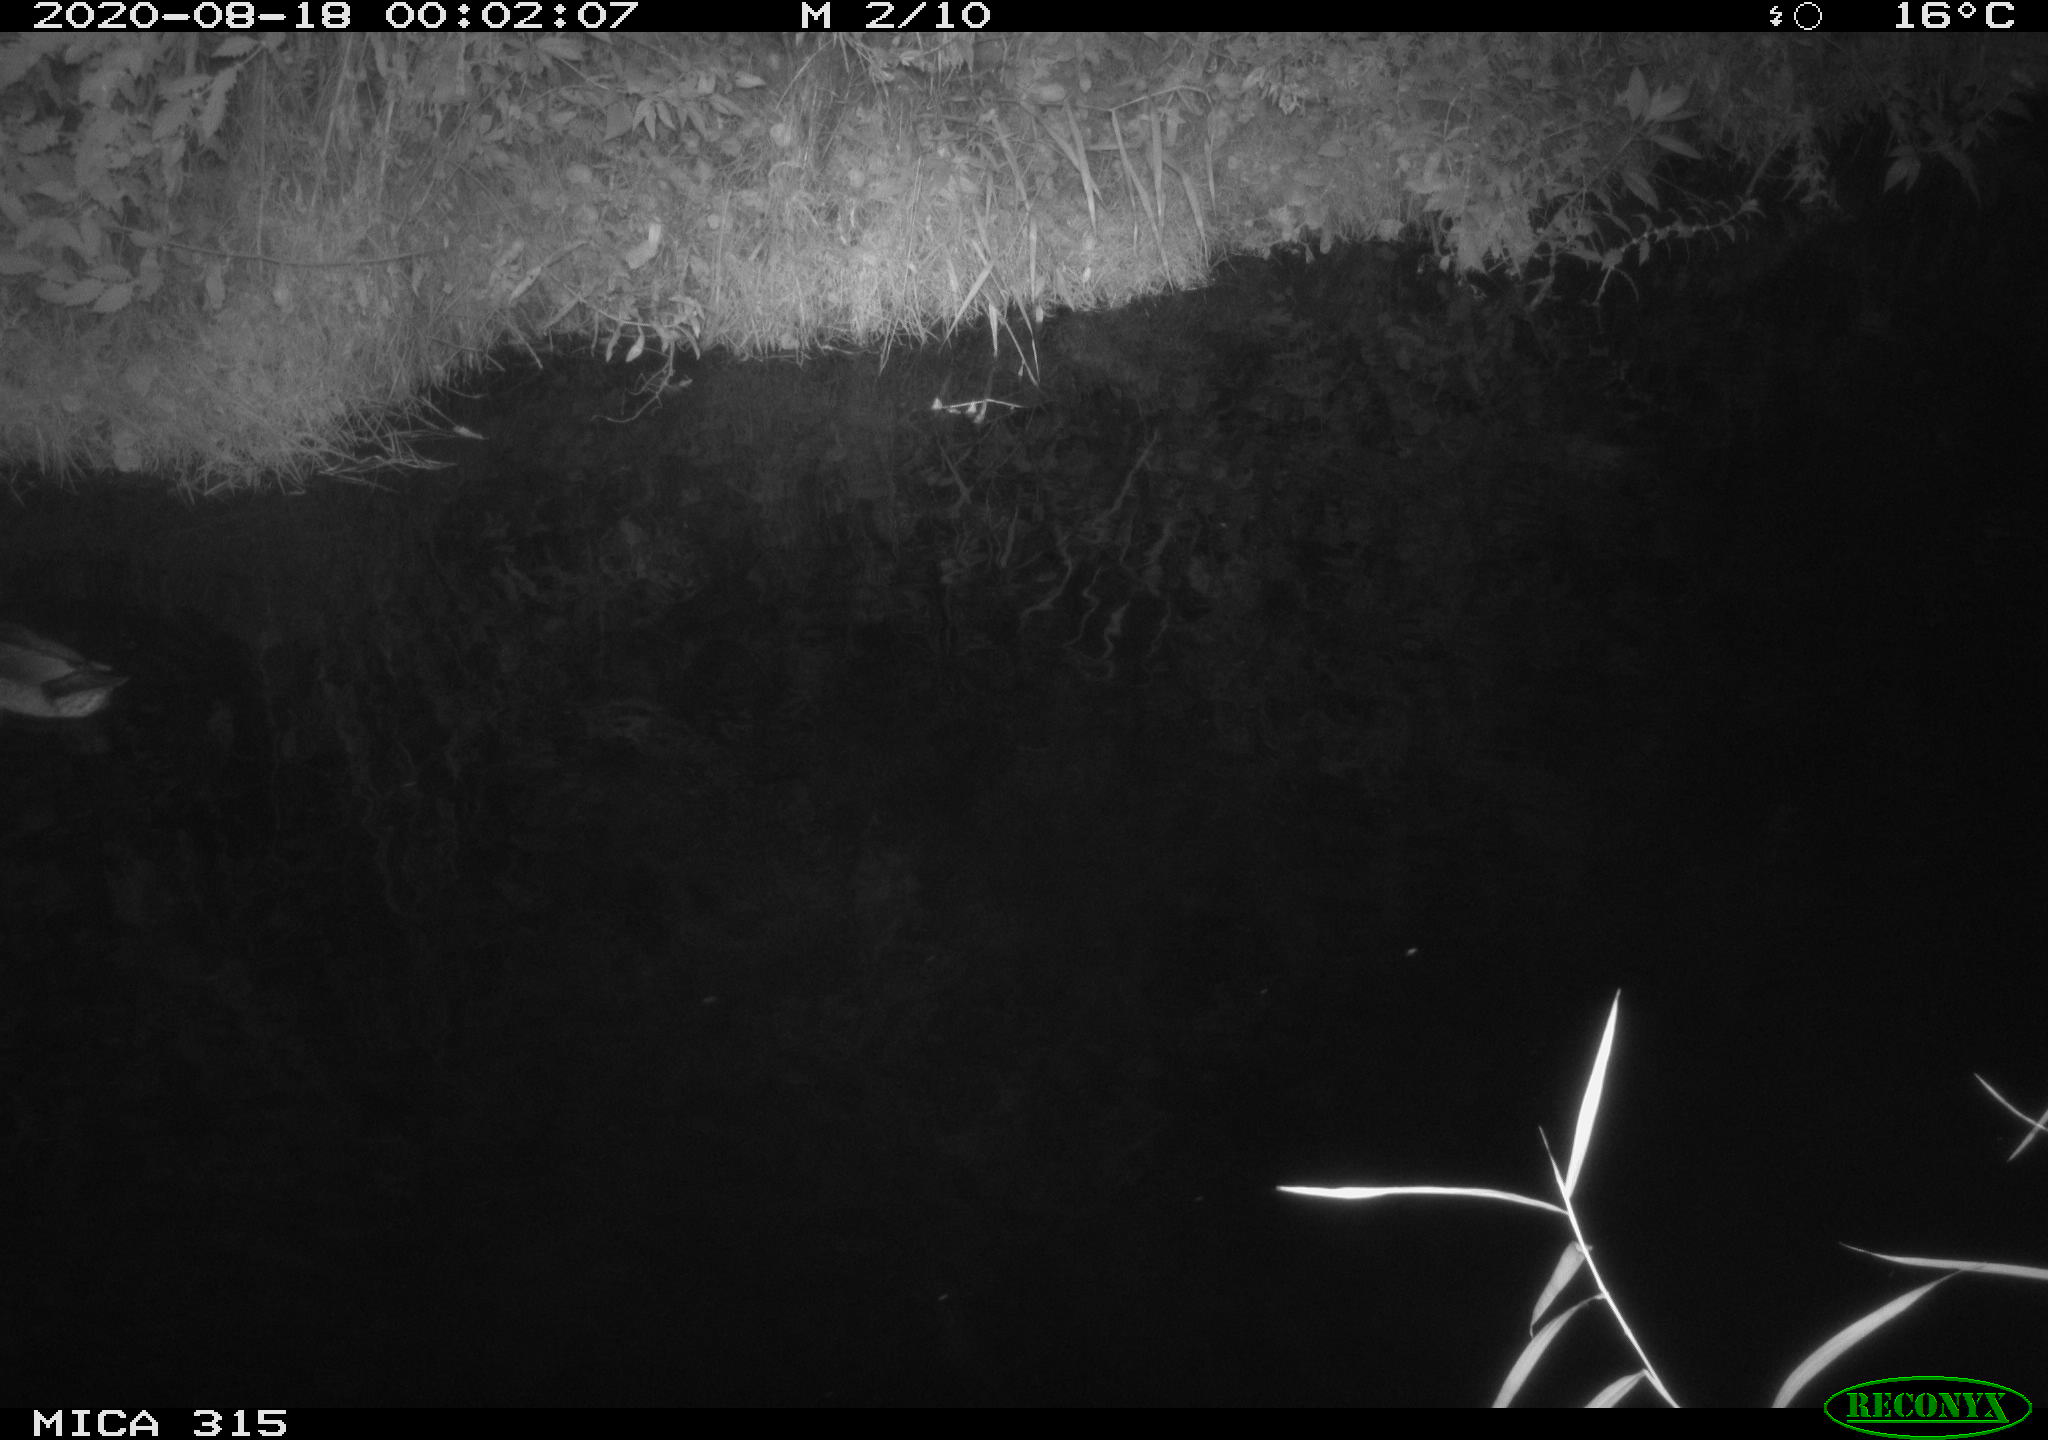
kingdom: Animalia
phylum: Chordata
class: Aves
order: Anseriformes
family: Anatidae
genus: Anas
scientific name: Anas platyrhynchos
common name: Mallard
